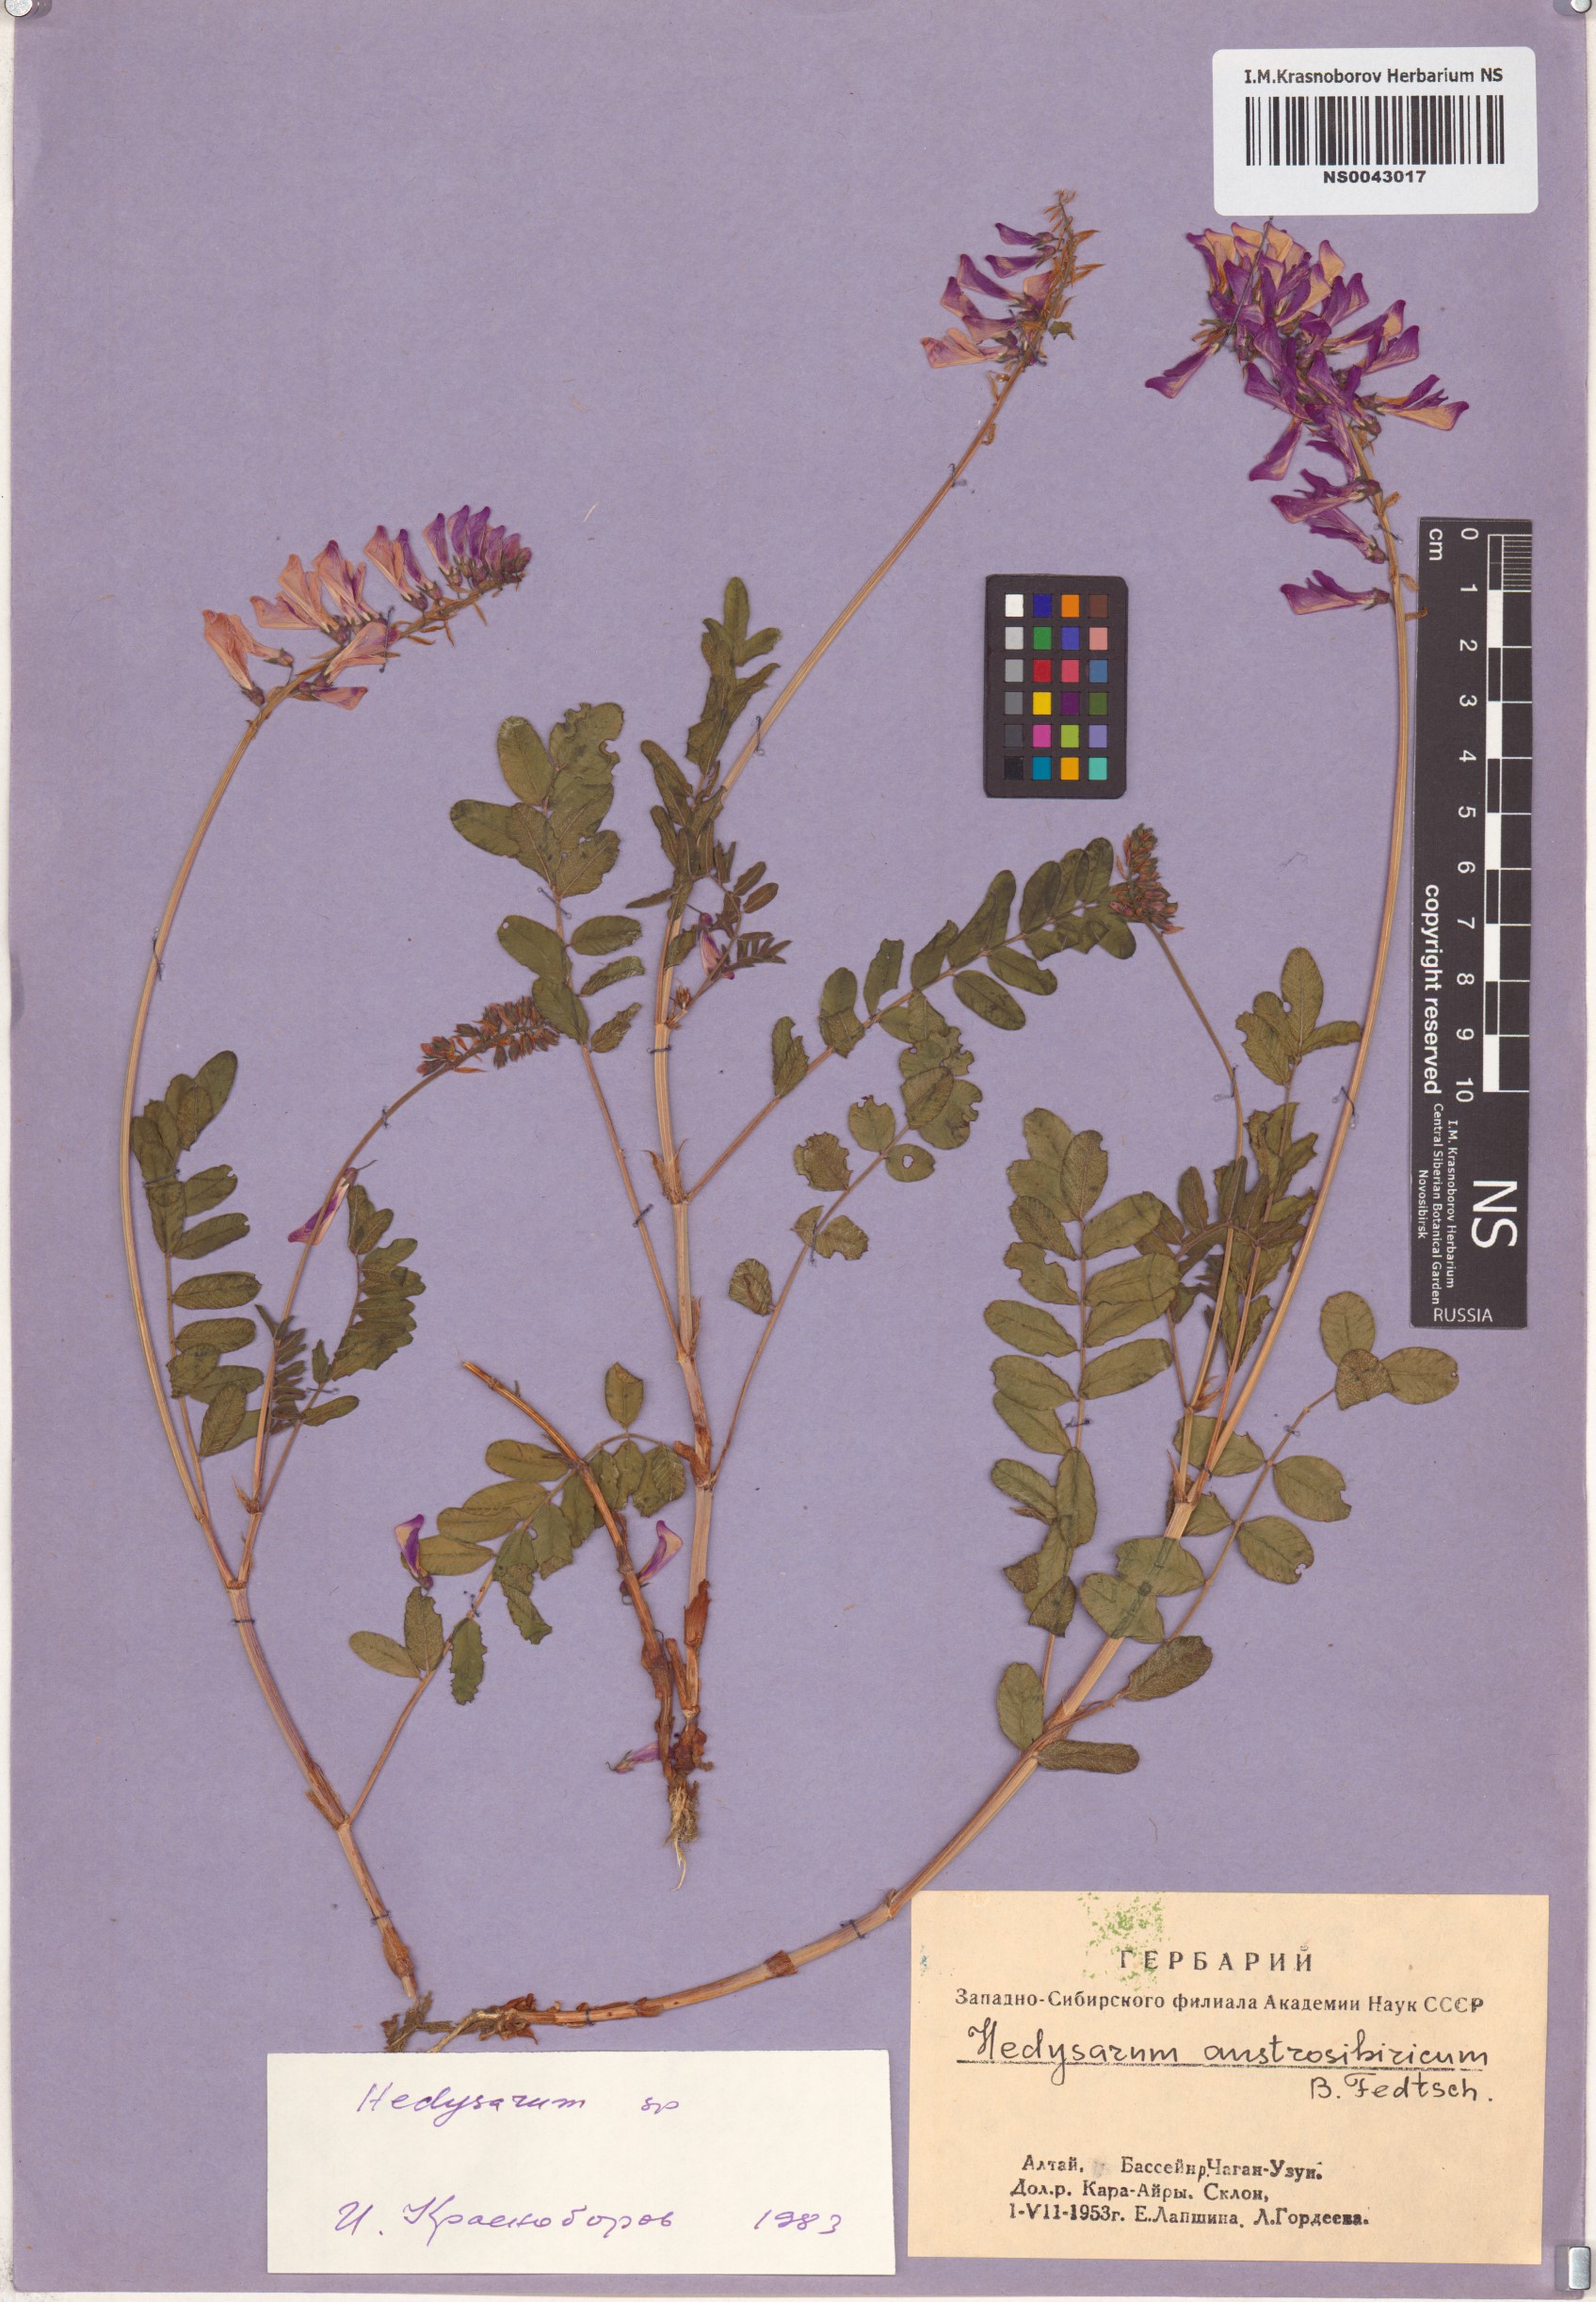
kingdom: Plantae
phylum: Tracheophyta
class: Magnoliopsida
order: Fabales
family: Fabaceae
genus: Hedysarum
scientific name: Hedysarum
